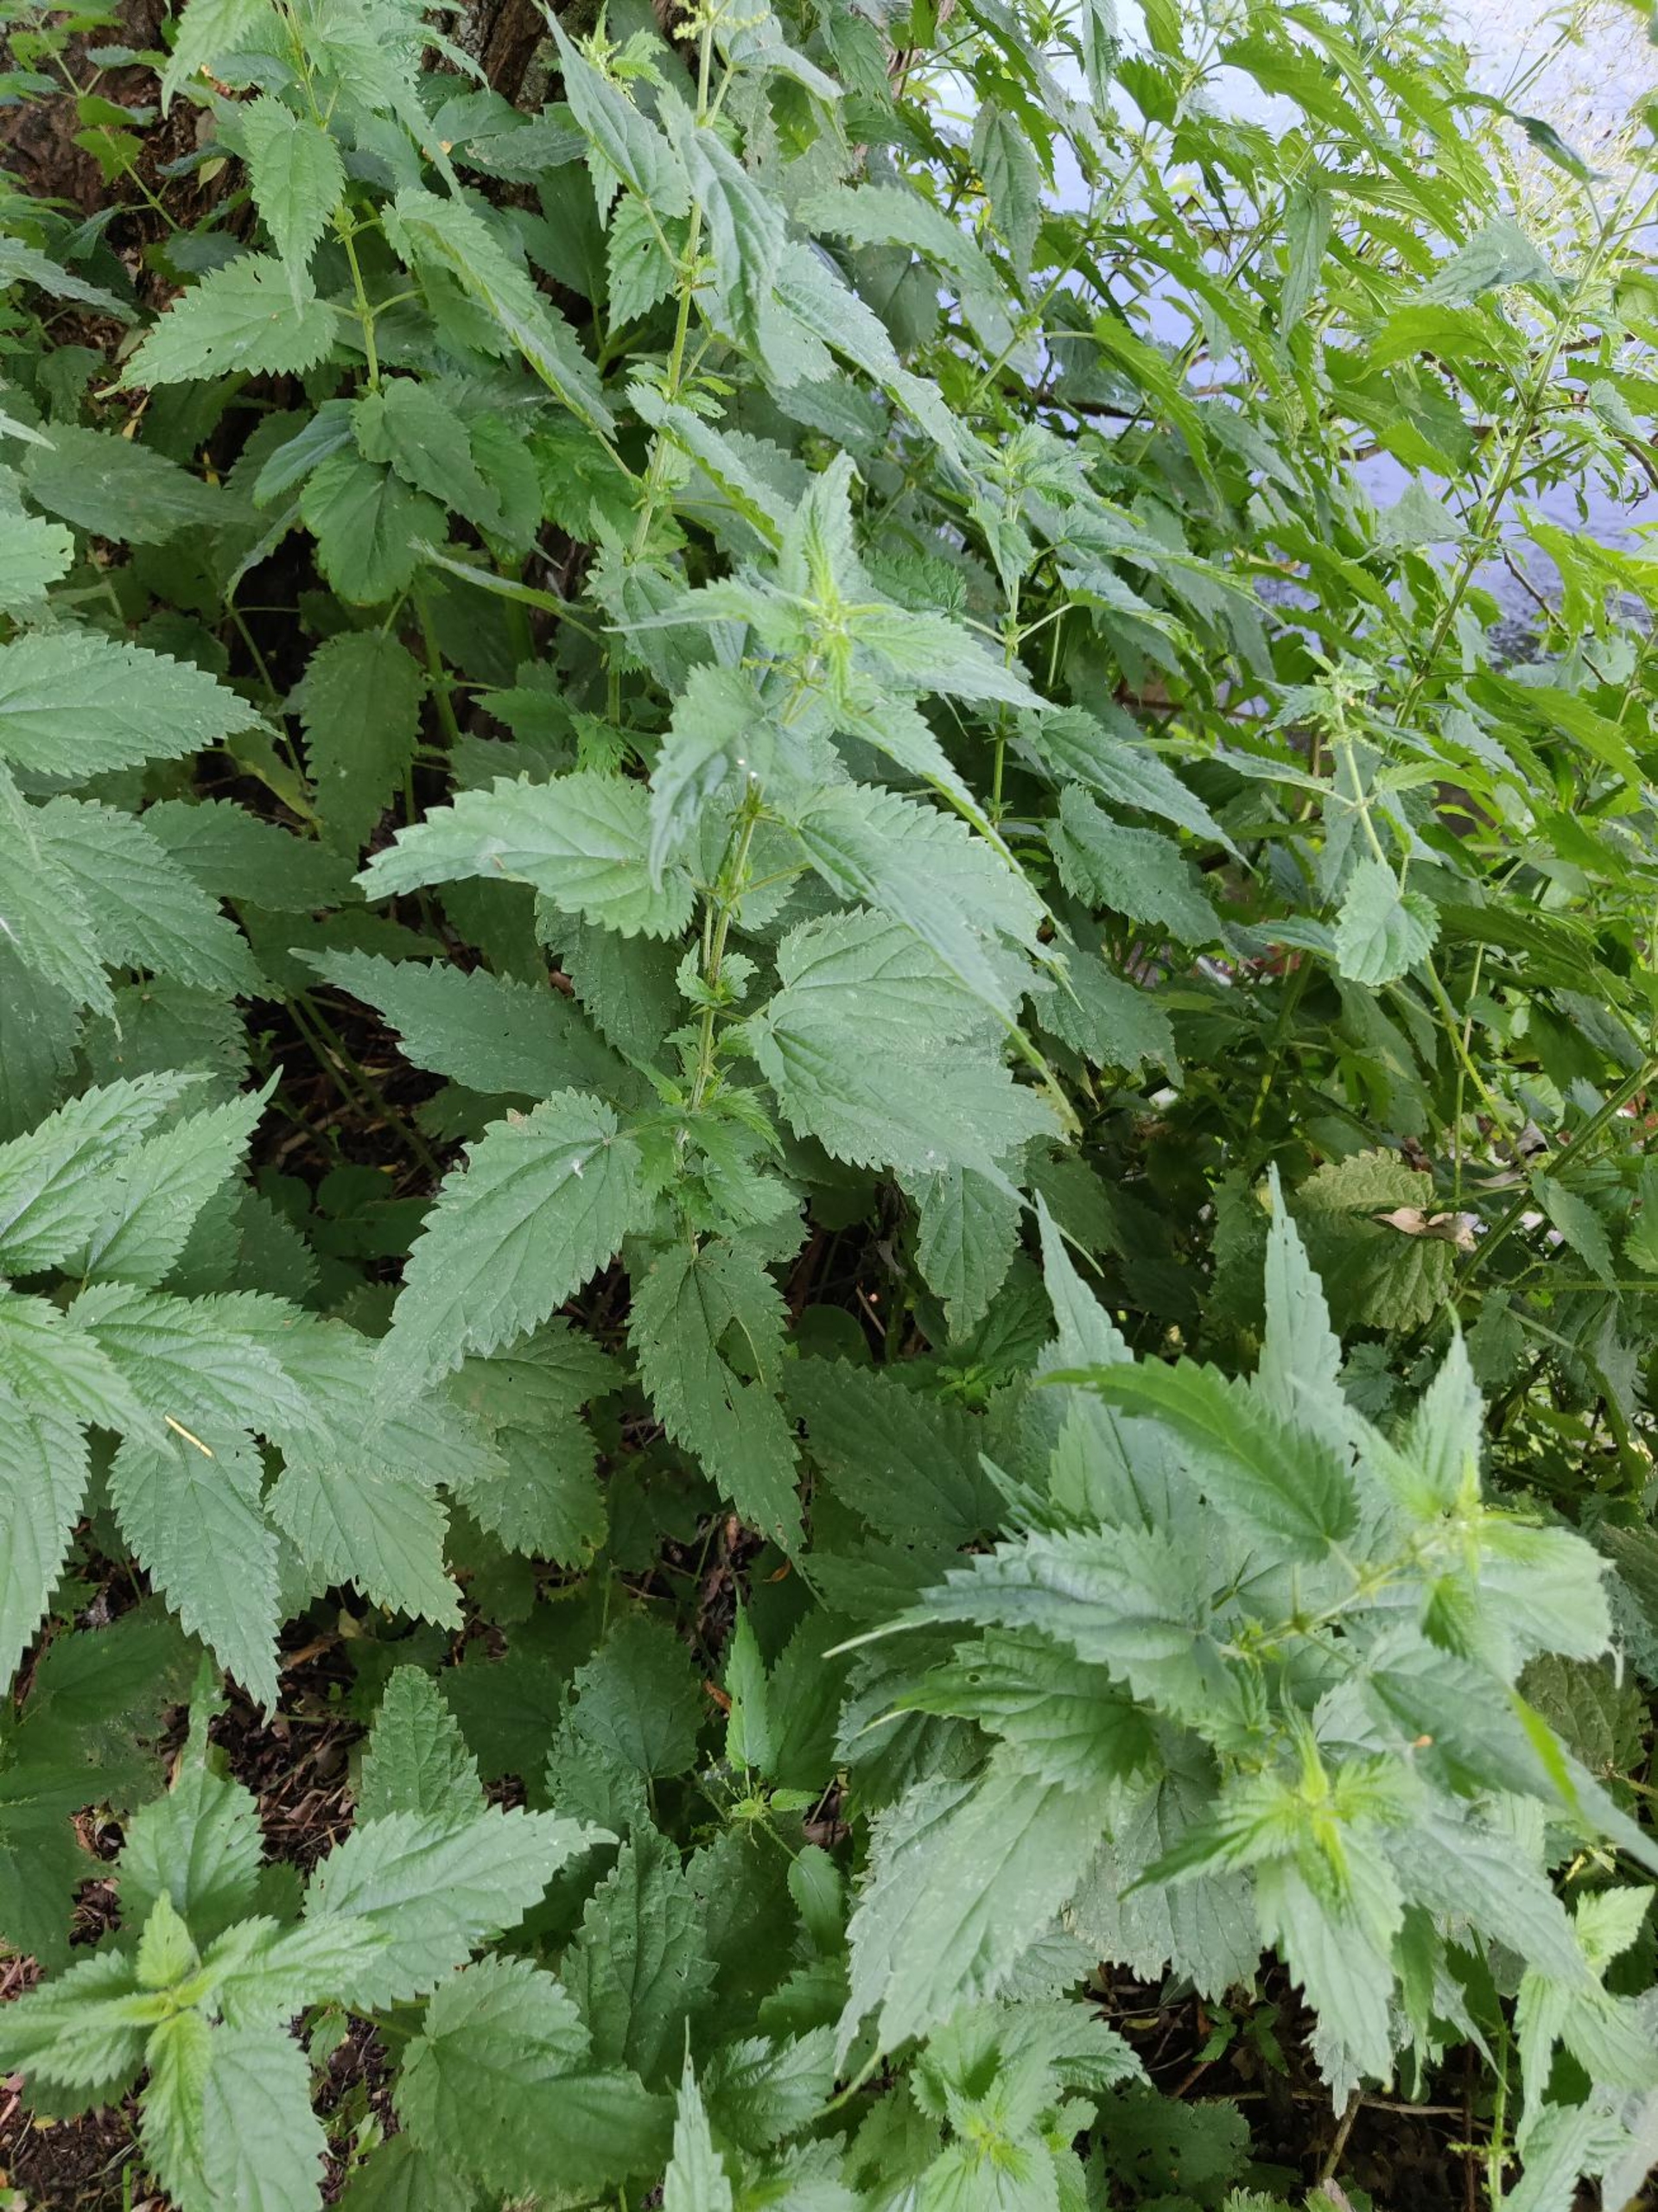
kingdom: Plantae
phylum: Tracheophyta
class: Magnoliopsida
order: Rosales
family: Urticaceae
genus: Urtica
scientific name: Urtica dioica
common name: Stor nælde
